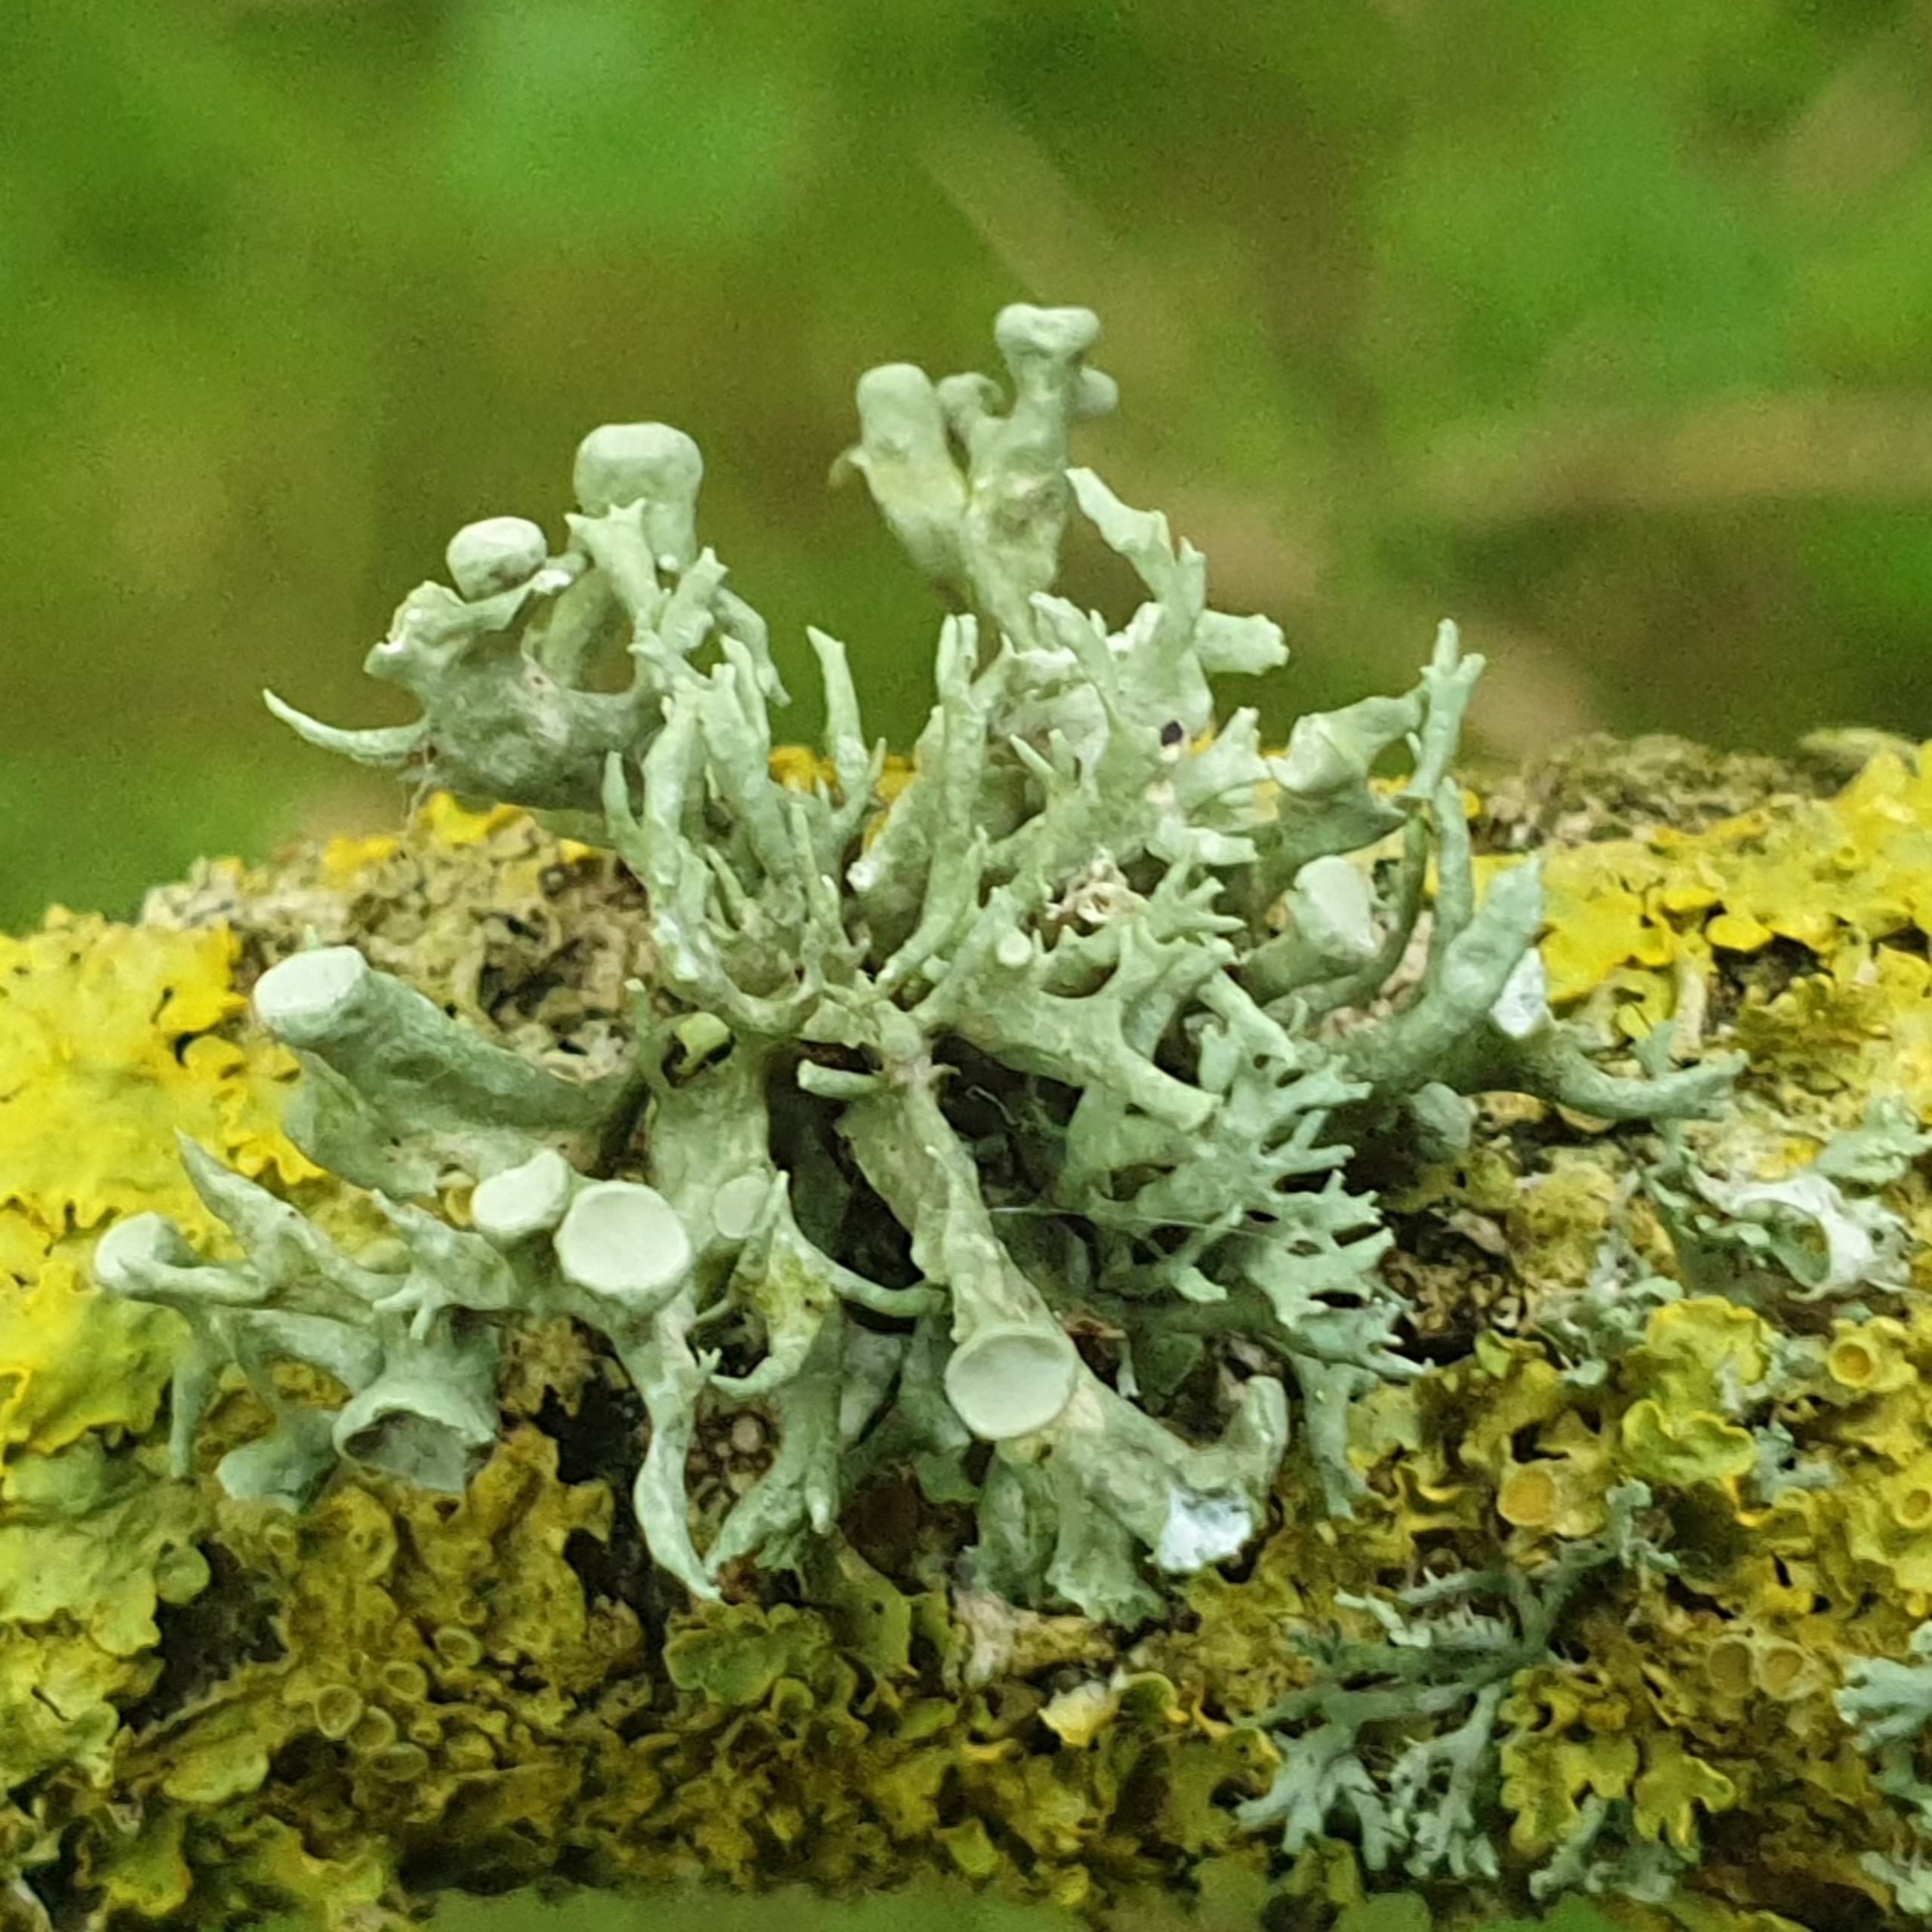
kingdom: Fungi
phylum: Ascomycota
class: Lecanoromycetes
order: Lecanorales
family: Ramalinaceae
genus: Ramalina
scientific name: Ramalina fastigiata
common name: Tue-grenlav
